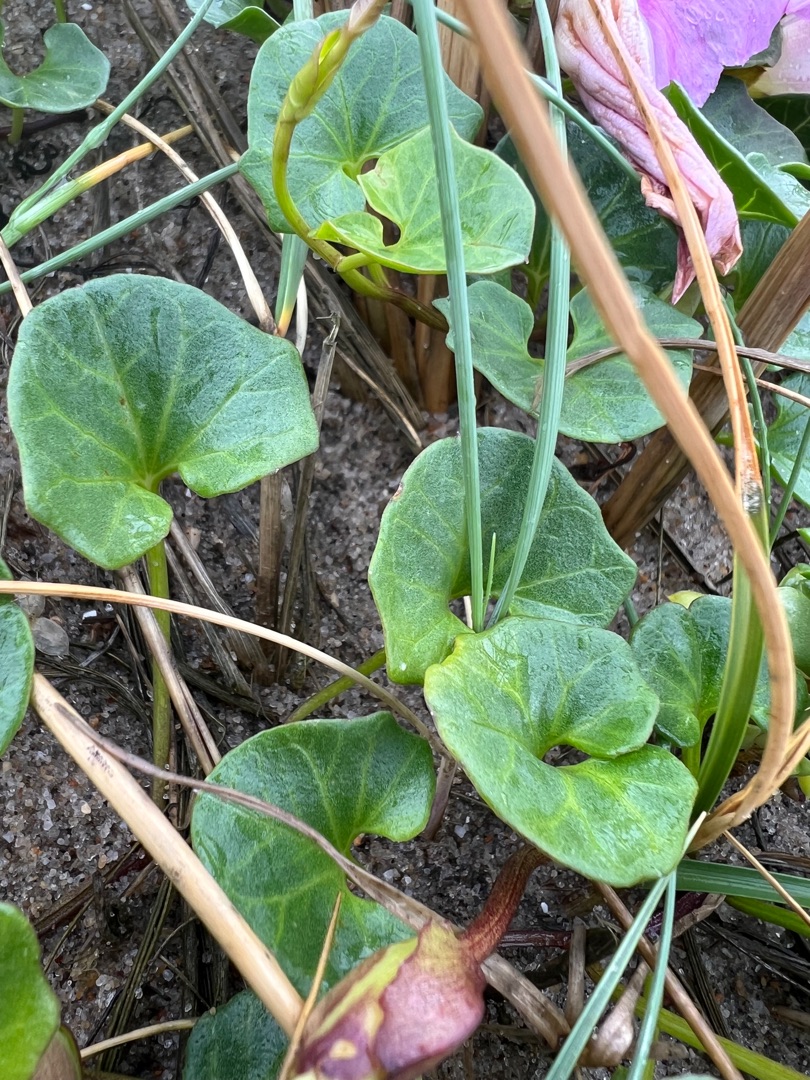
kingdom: Plantae
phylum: Tracheophyta
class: Magnoliopsida
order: Solanales
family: Convolvulaceae
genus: Calystegia
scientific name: Calystegia soldanella
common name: Strand-snerle
